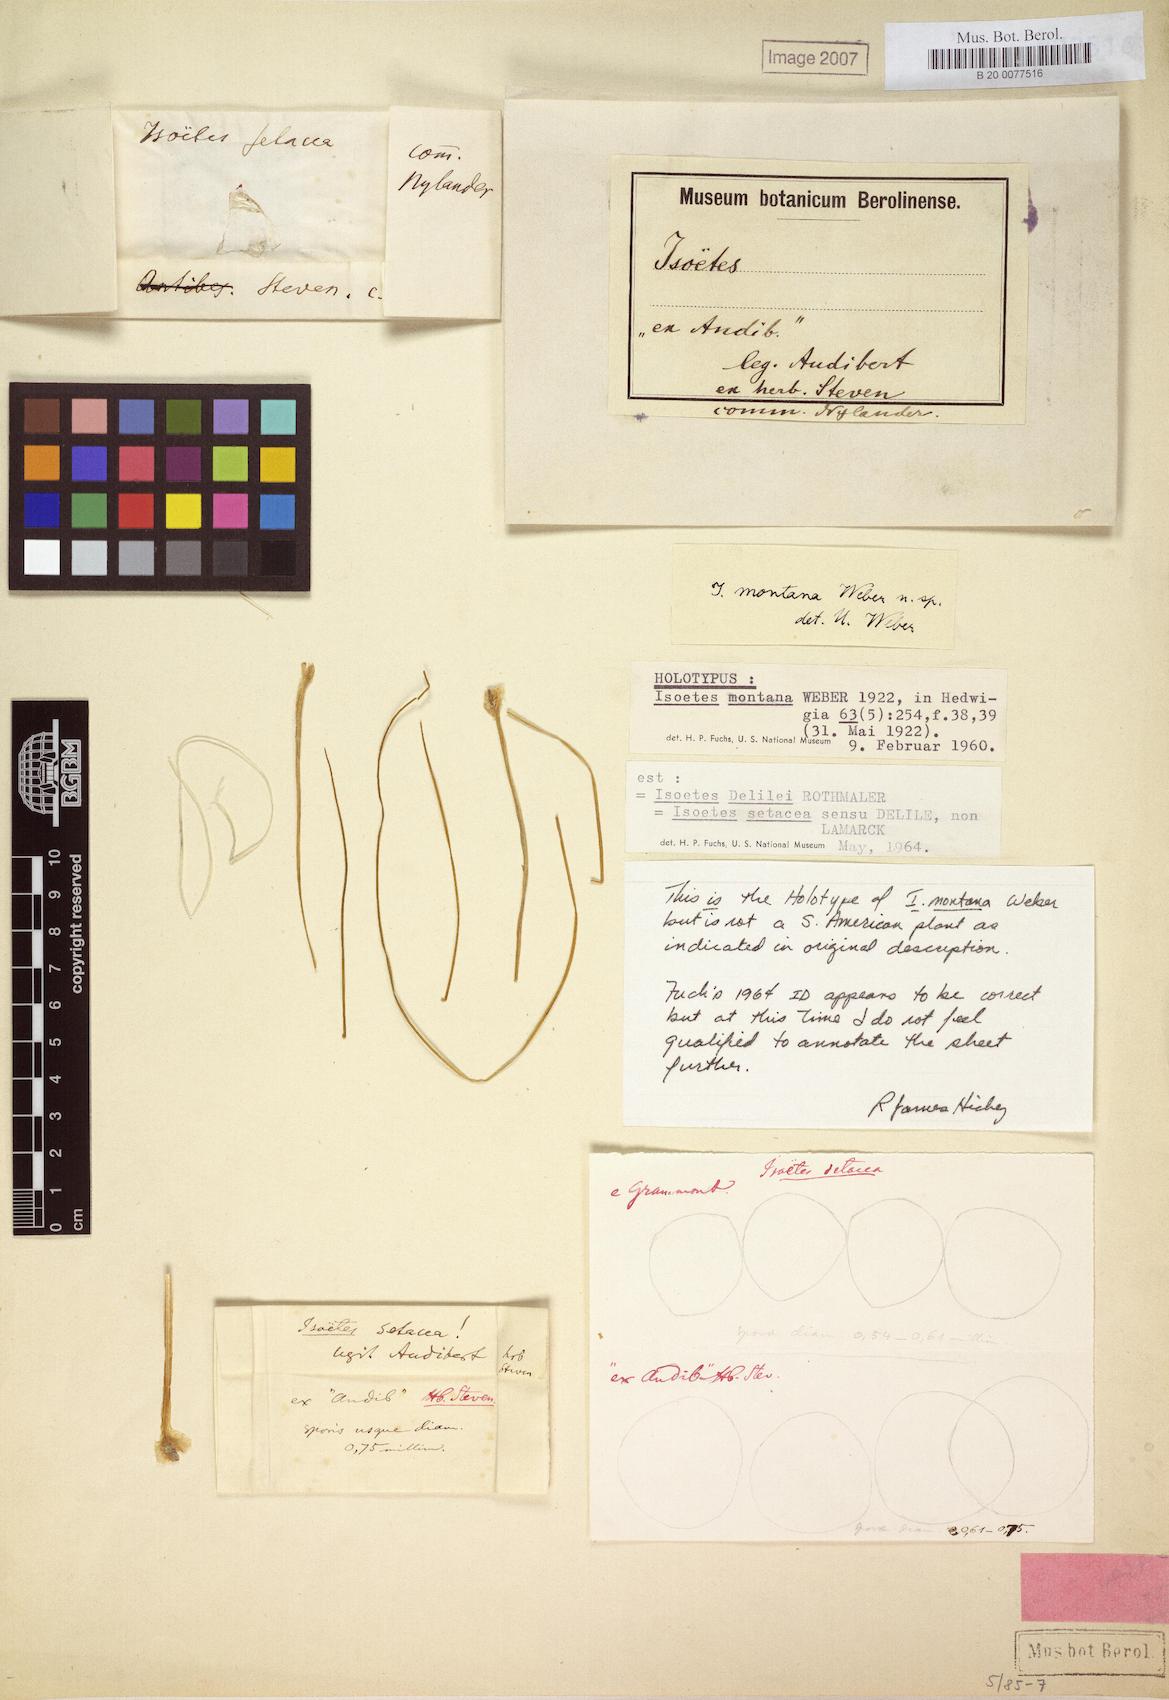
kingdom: Plantae
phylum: Tracheophyta
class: Lycopodiopsida
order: Isoetales
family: Isoetaceae
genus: Isoetes
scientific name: Isoetes delilei
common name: Iberian quillwort
